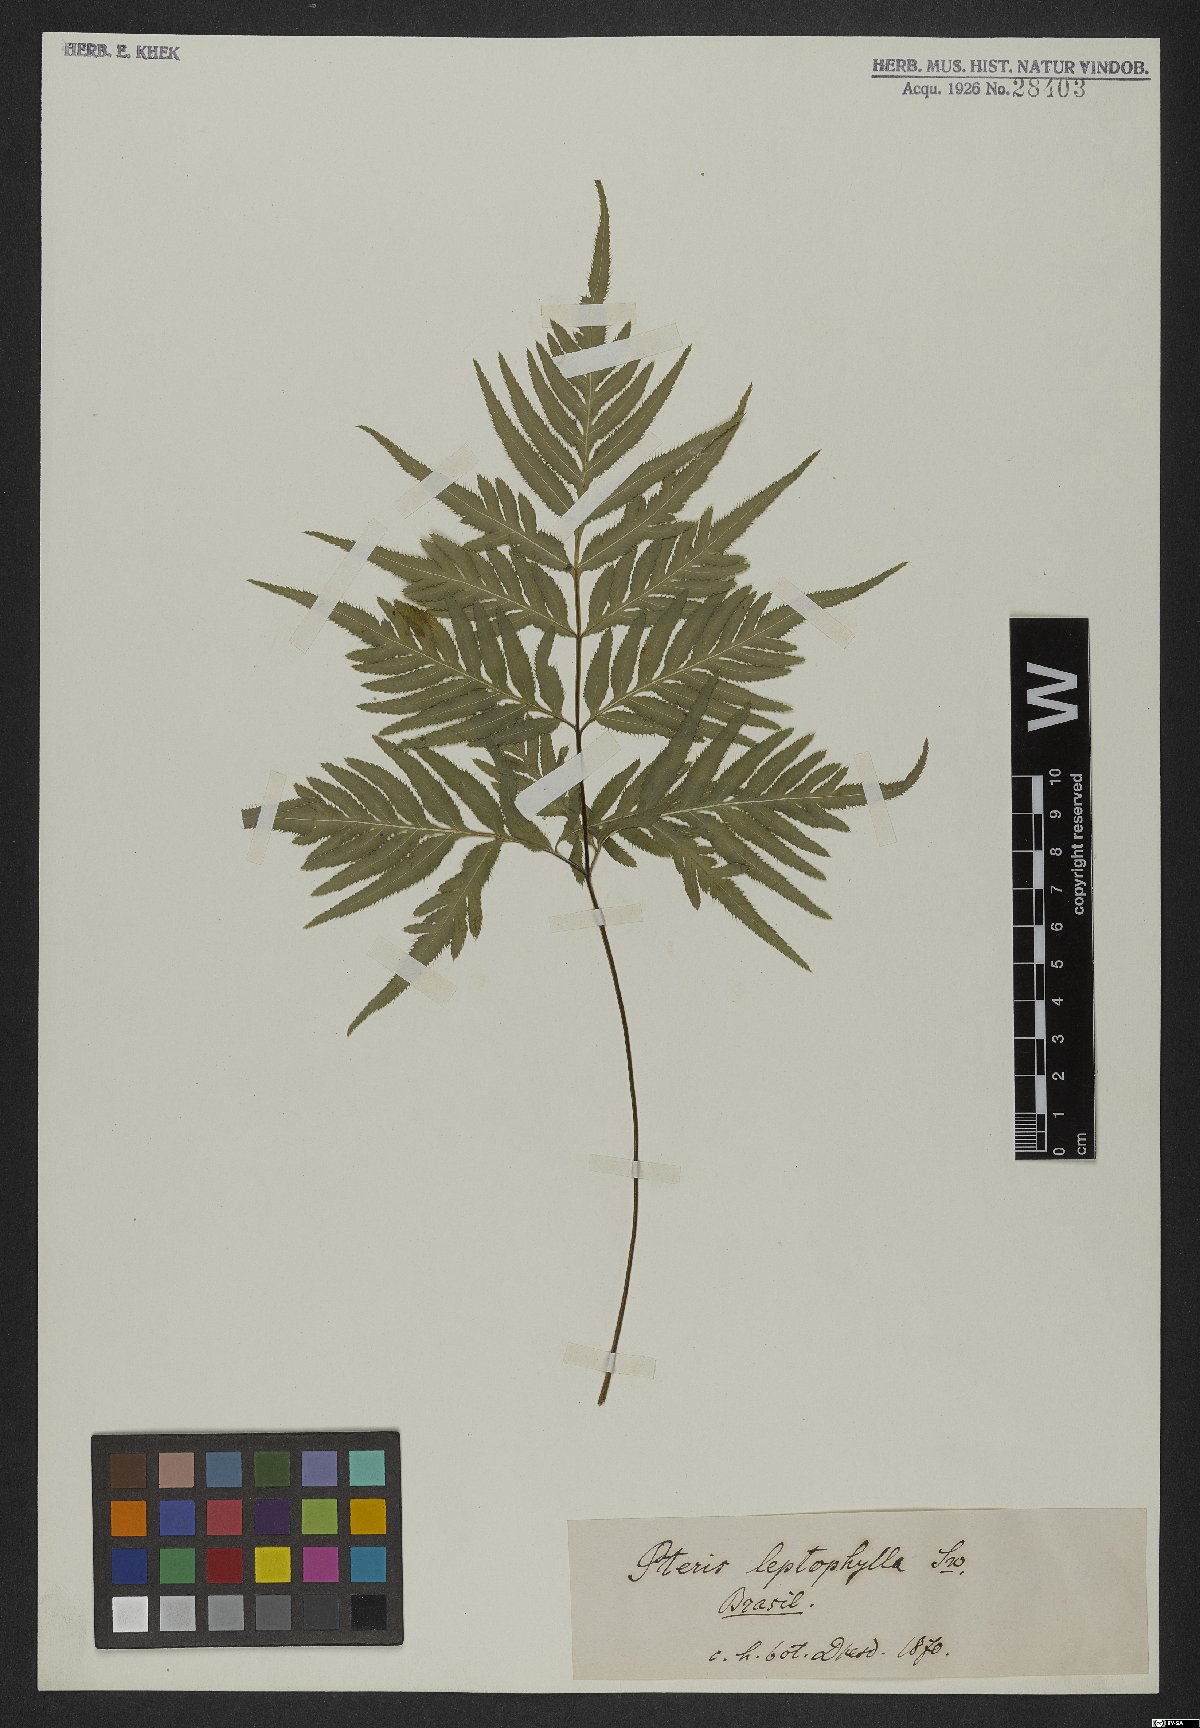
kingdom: Plantae
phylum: Tracheophyta
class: Polypodiopsida
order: Polypodiales
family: Pteridaceae
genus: Pteris
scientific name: Pteris leptophylla
